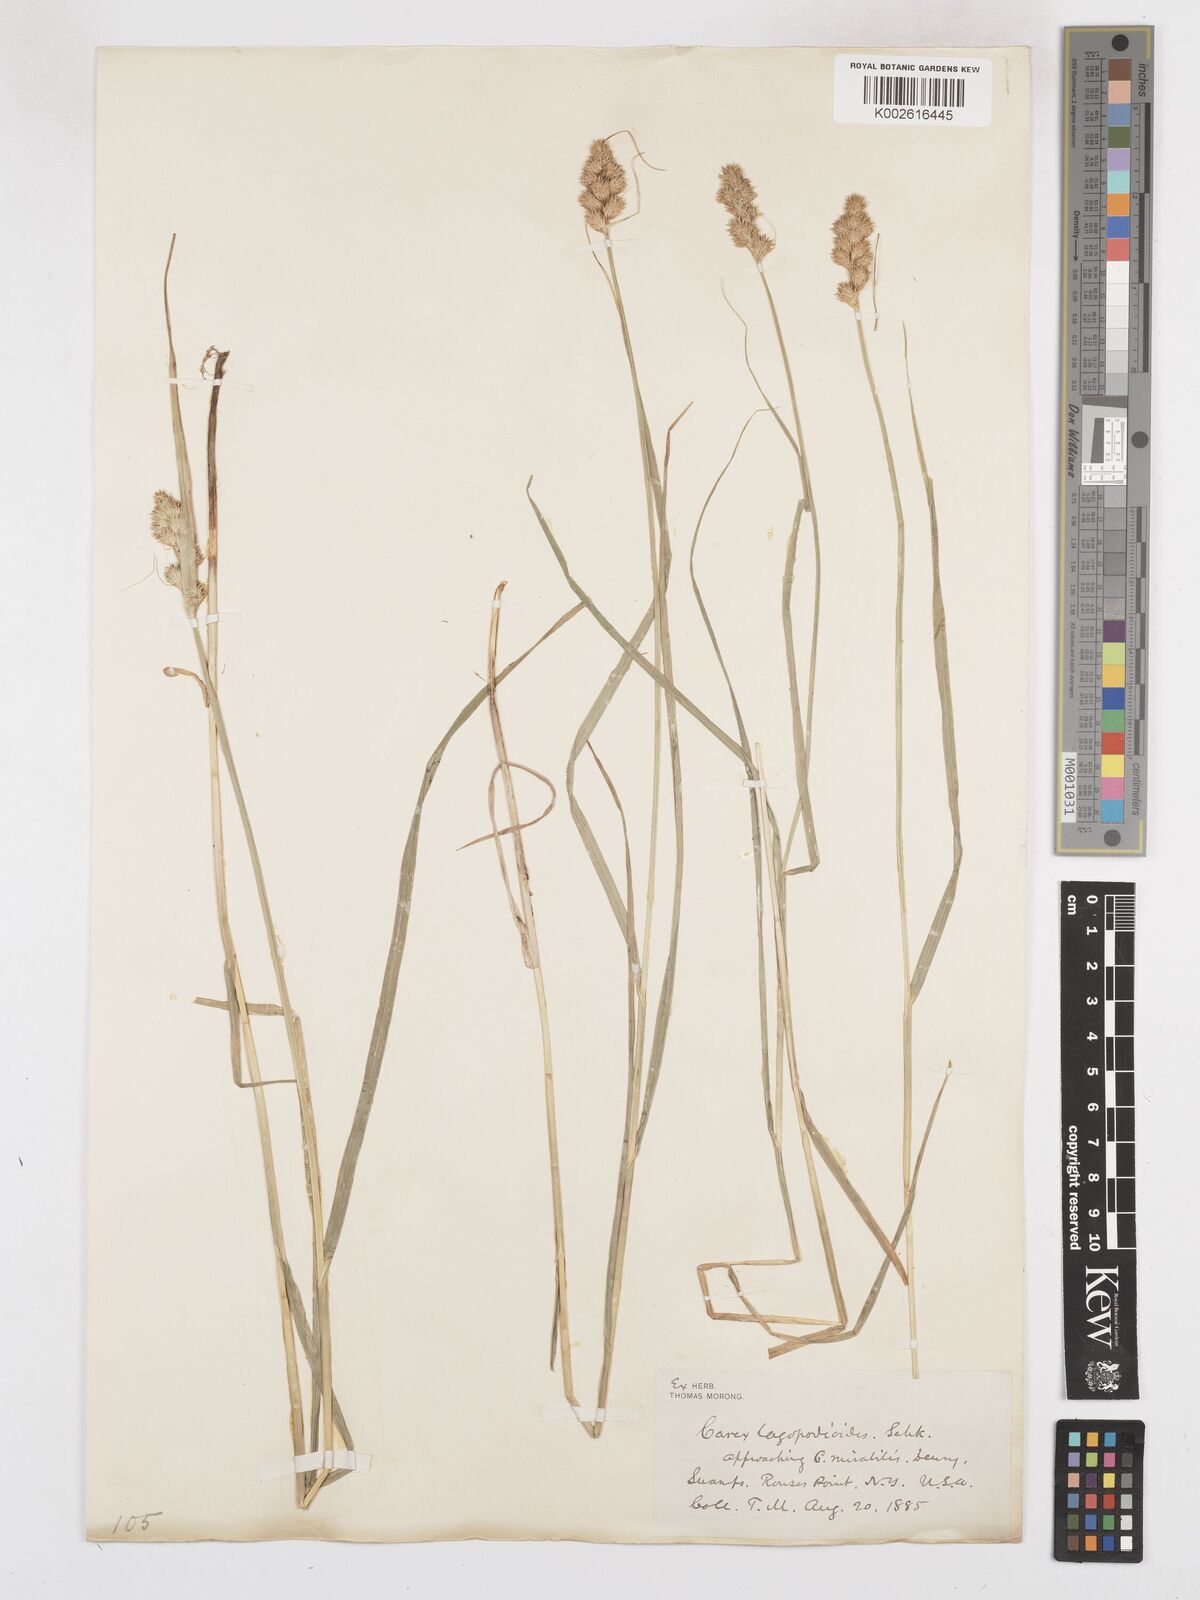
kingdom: Plantae
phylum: Tracheophyta
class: Liliopsida
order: Poales
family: Cyperaceae
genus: Carex
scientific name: Carex tribuloides
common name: Blunt broom sedge
